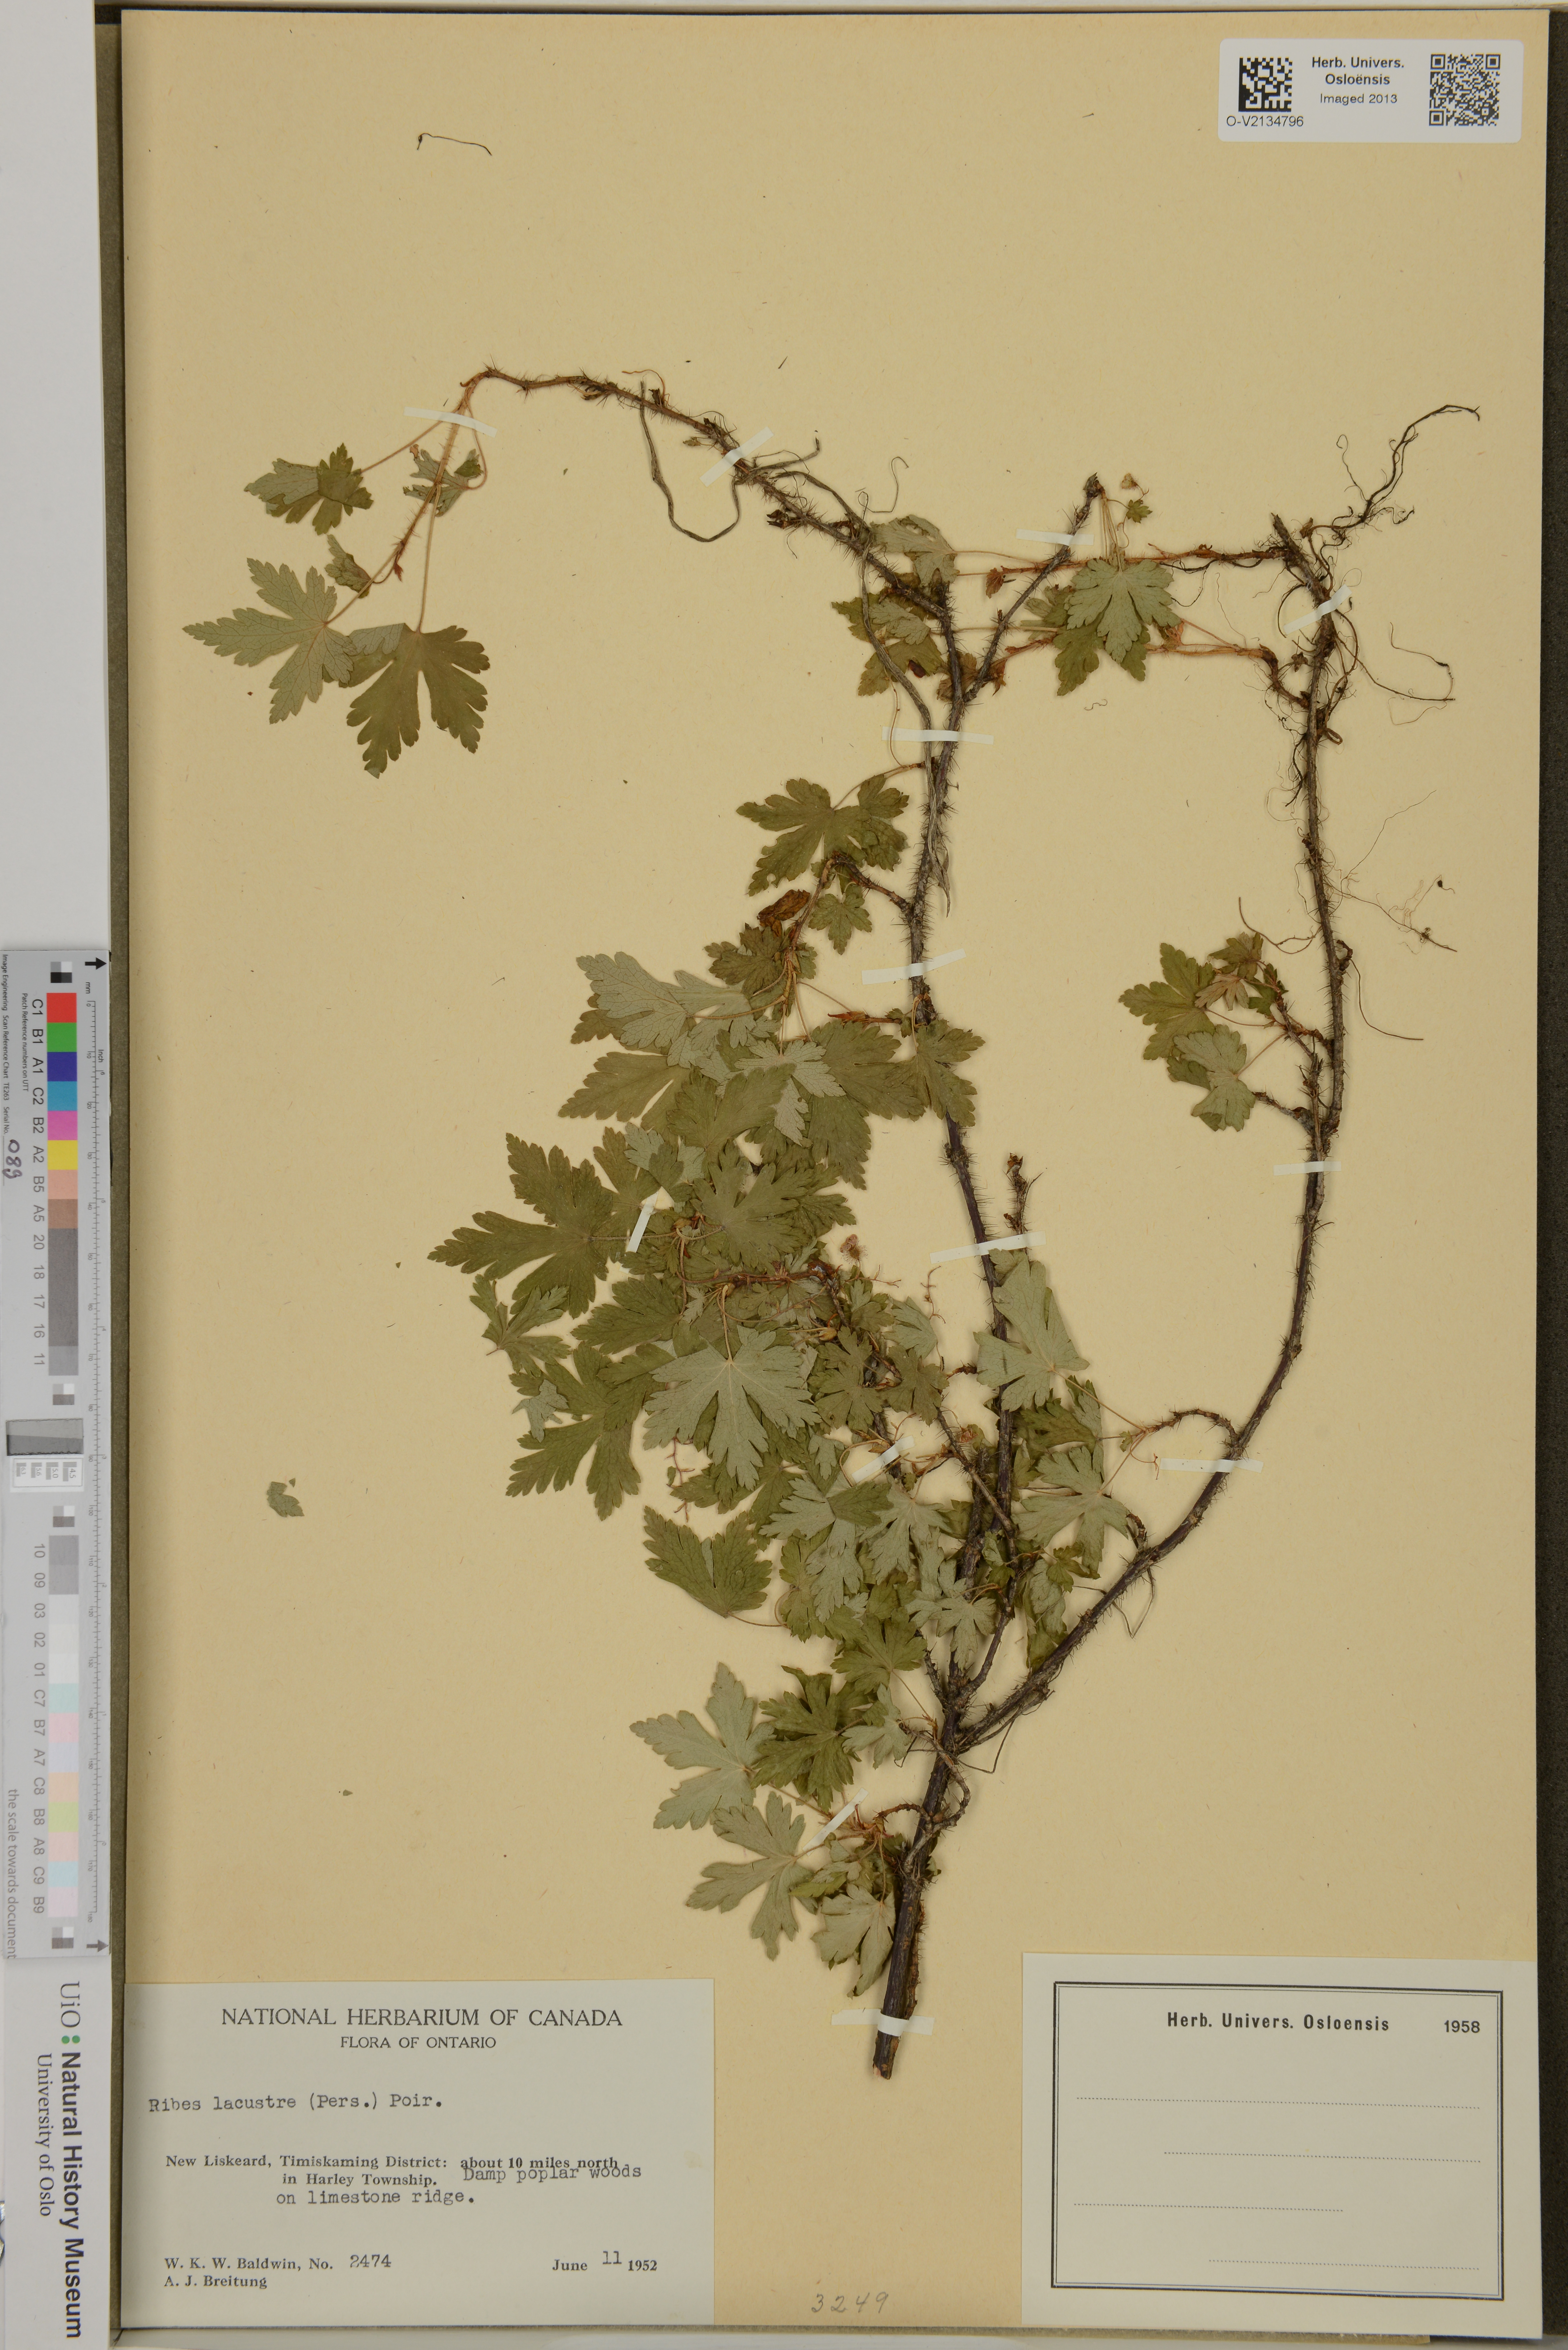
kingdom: Plantae
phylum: Tracheophyta
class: Magnoliopsida
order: Saxifragales
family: Grossulariaceae
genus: Ribes
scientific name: Ribes lacustre
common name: Black gooseberry
